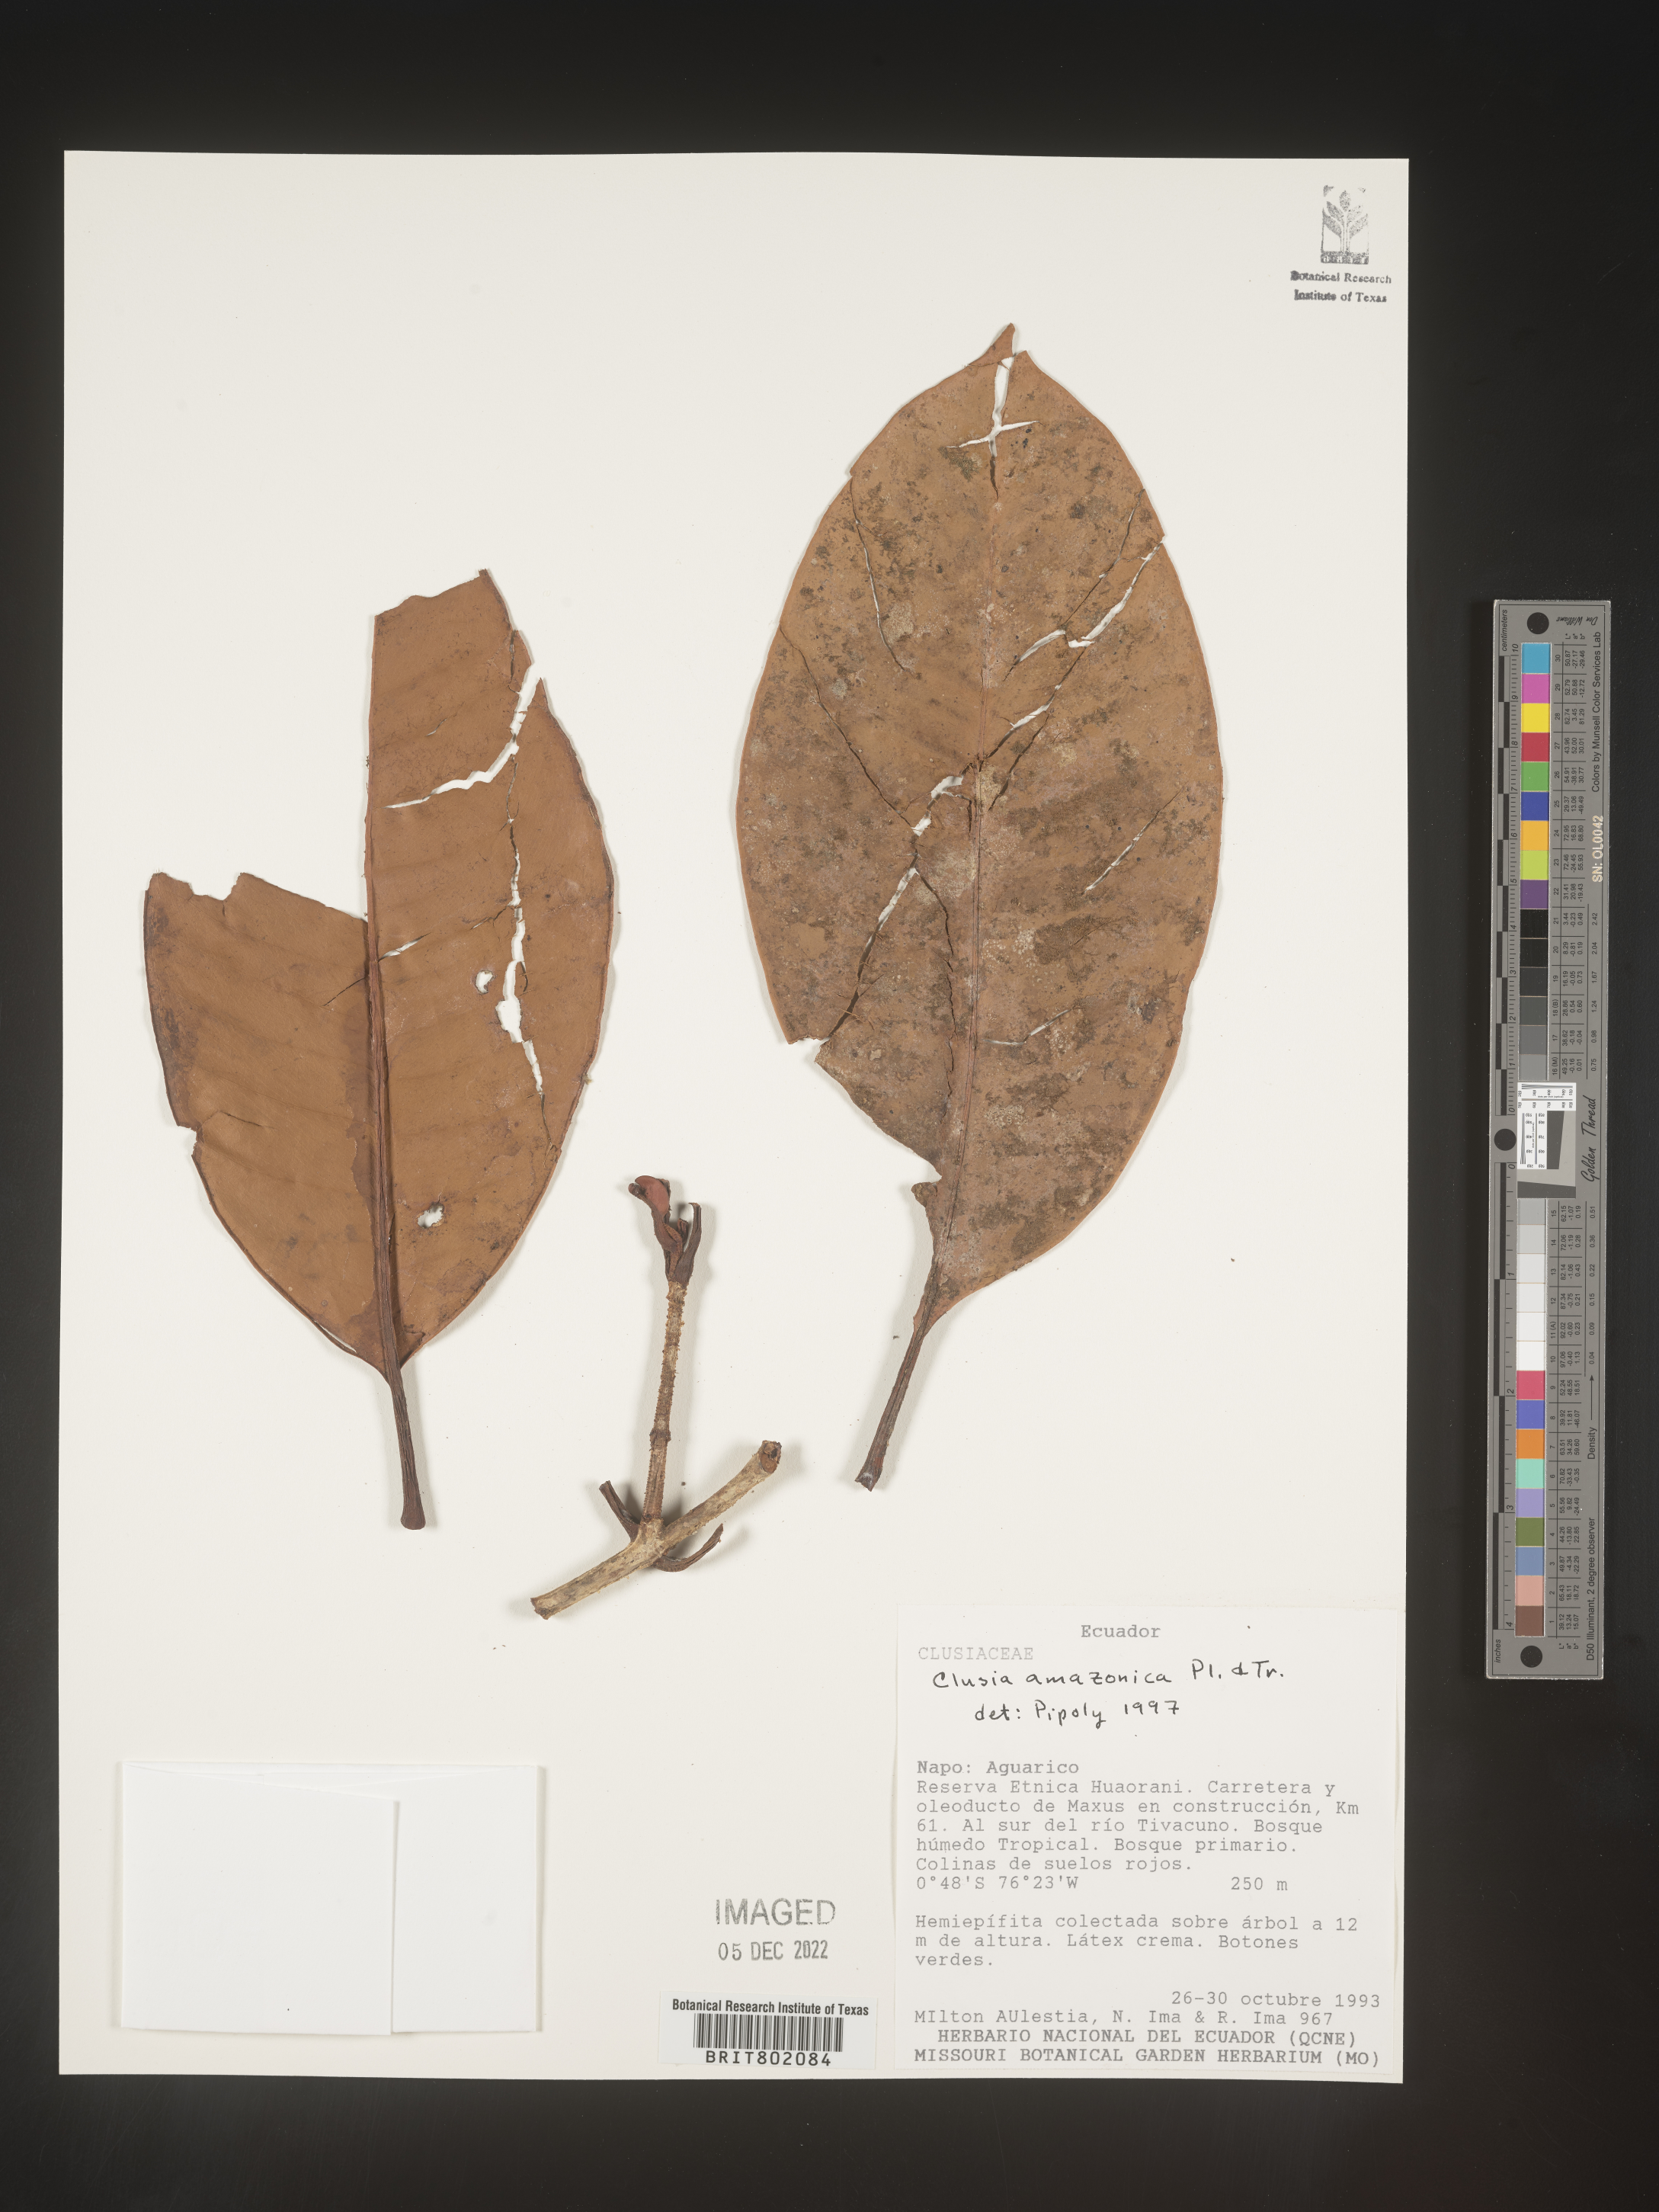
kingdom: Plantae
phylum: Tracheophyta
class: Magnoliopsida
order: Malpighiales
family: Clusiaceae
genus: Clusia
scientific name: Clusia amazonica
